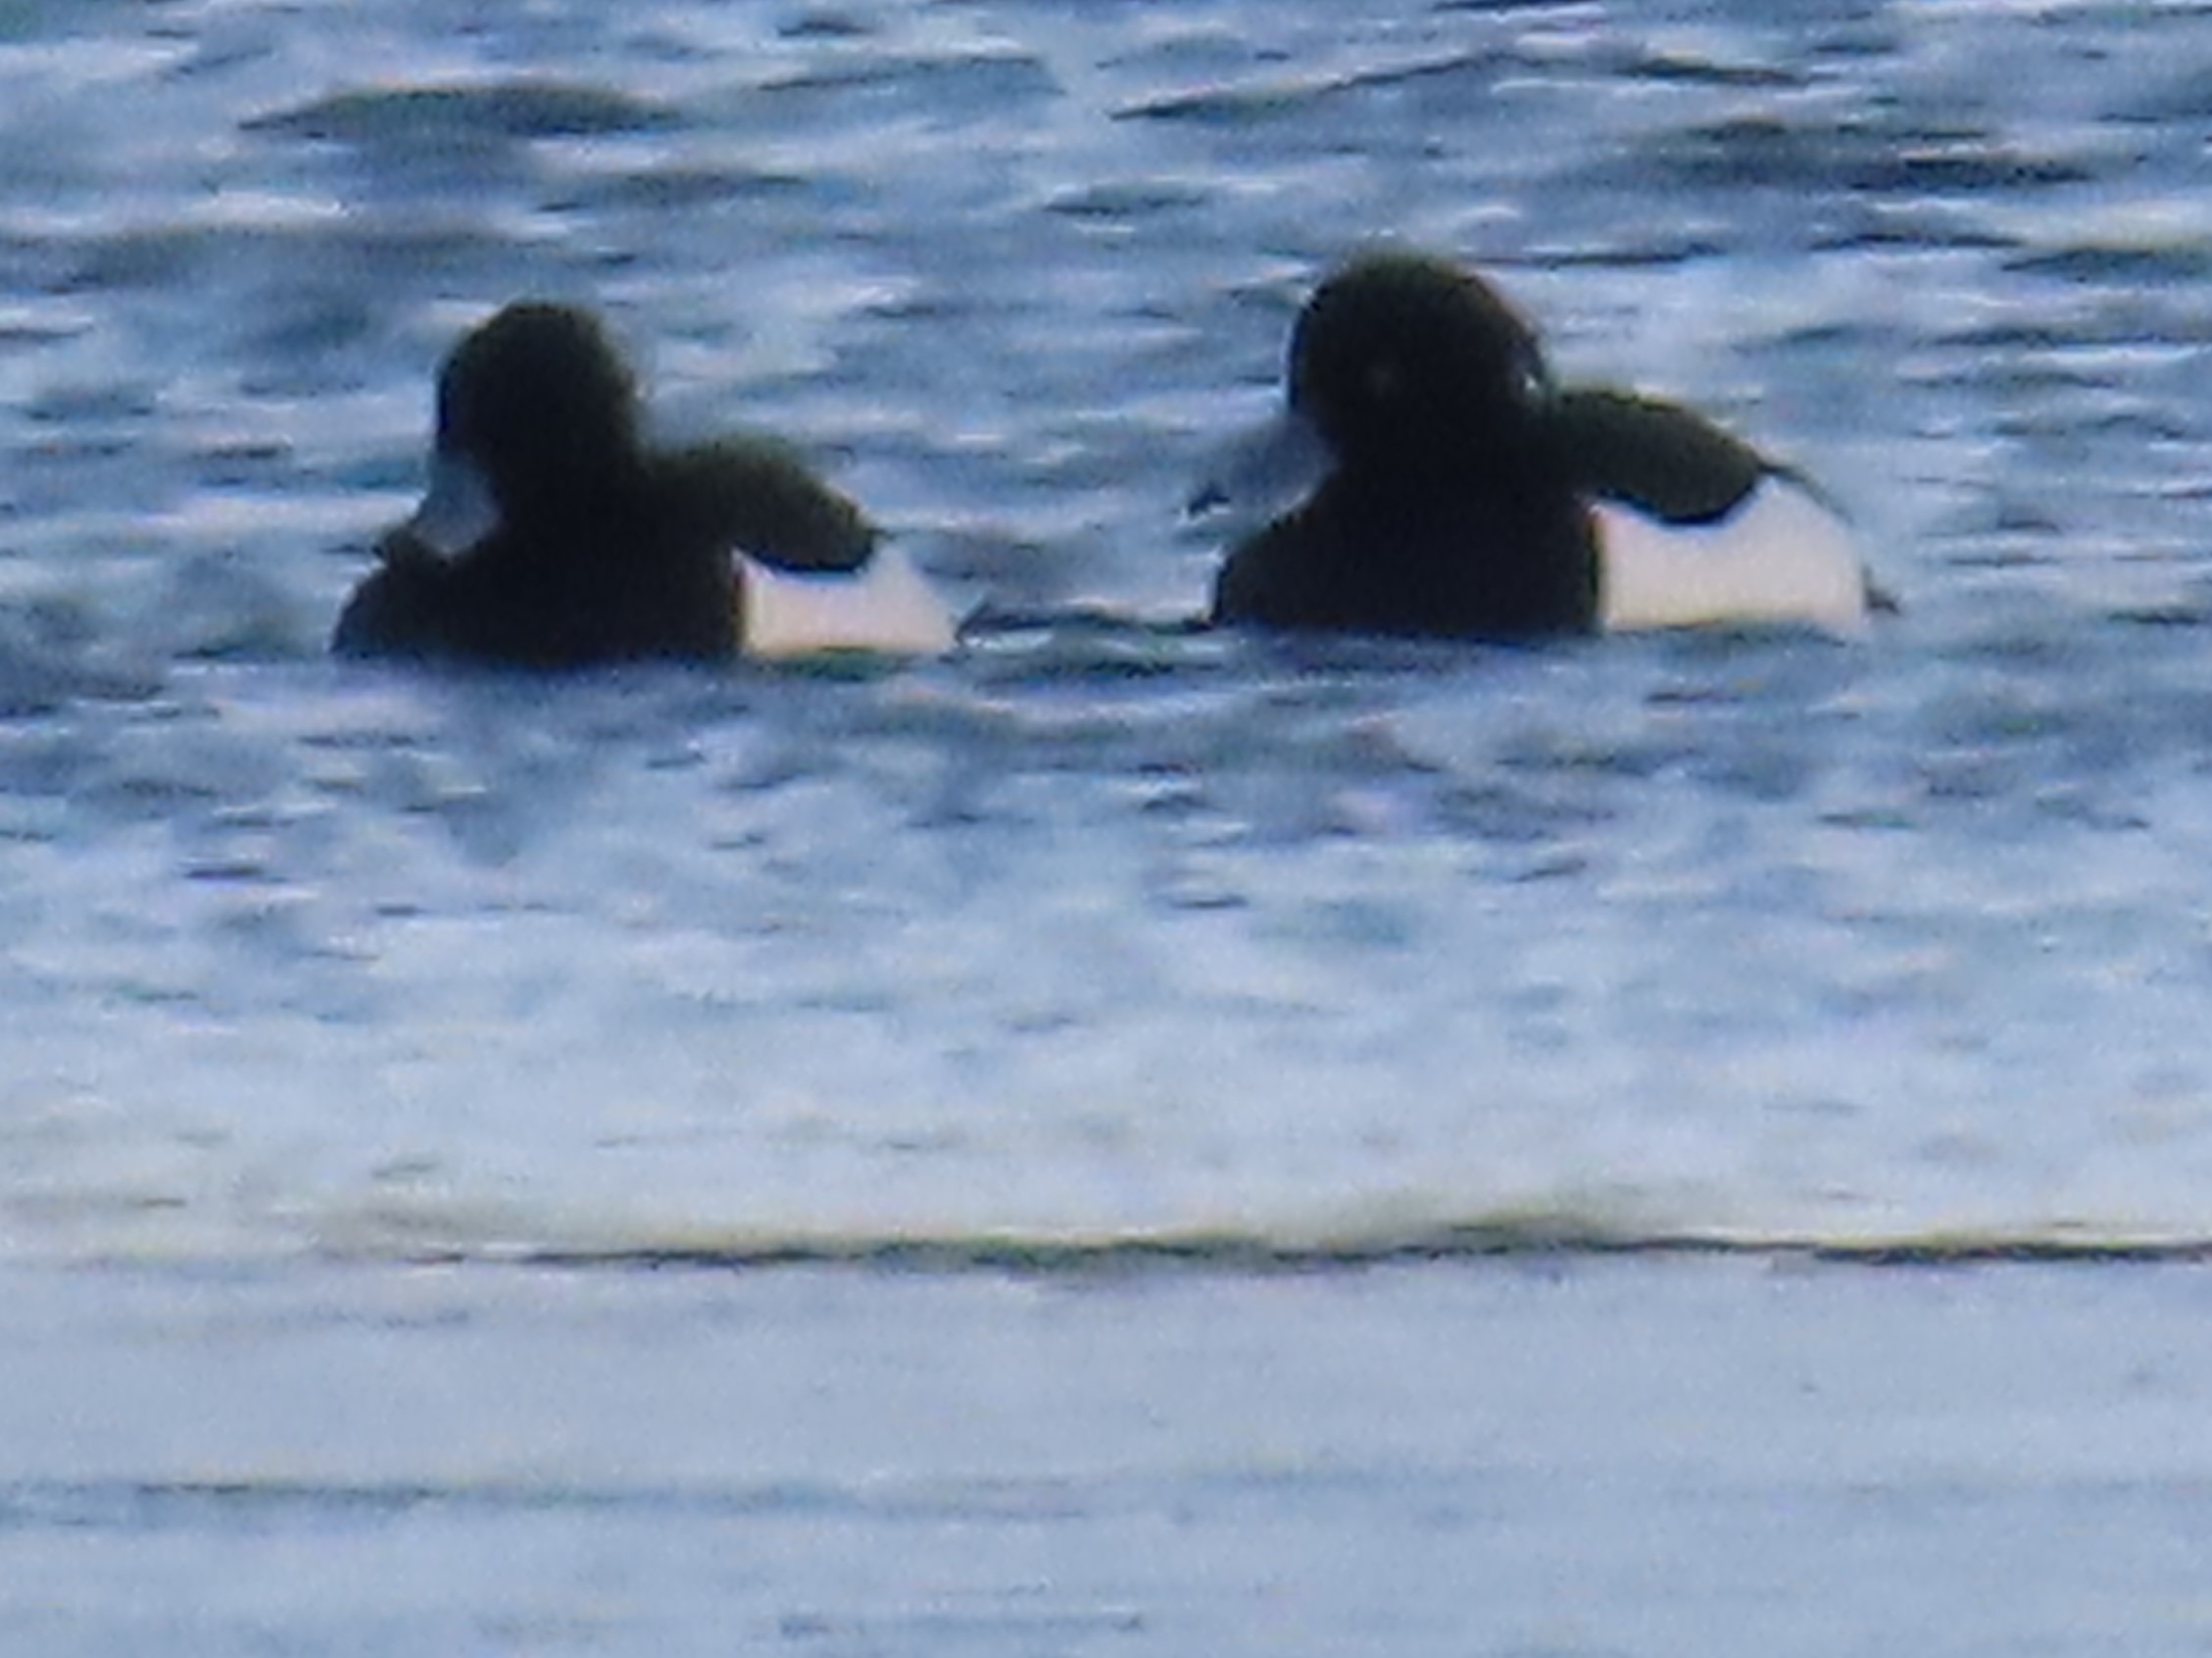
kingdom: Animalia
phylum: Chordata
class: Aves
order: Anseriformes
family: Anatidae
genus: Aythya
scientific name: Aythya fuligula
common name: Troldand
